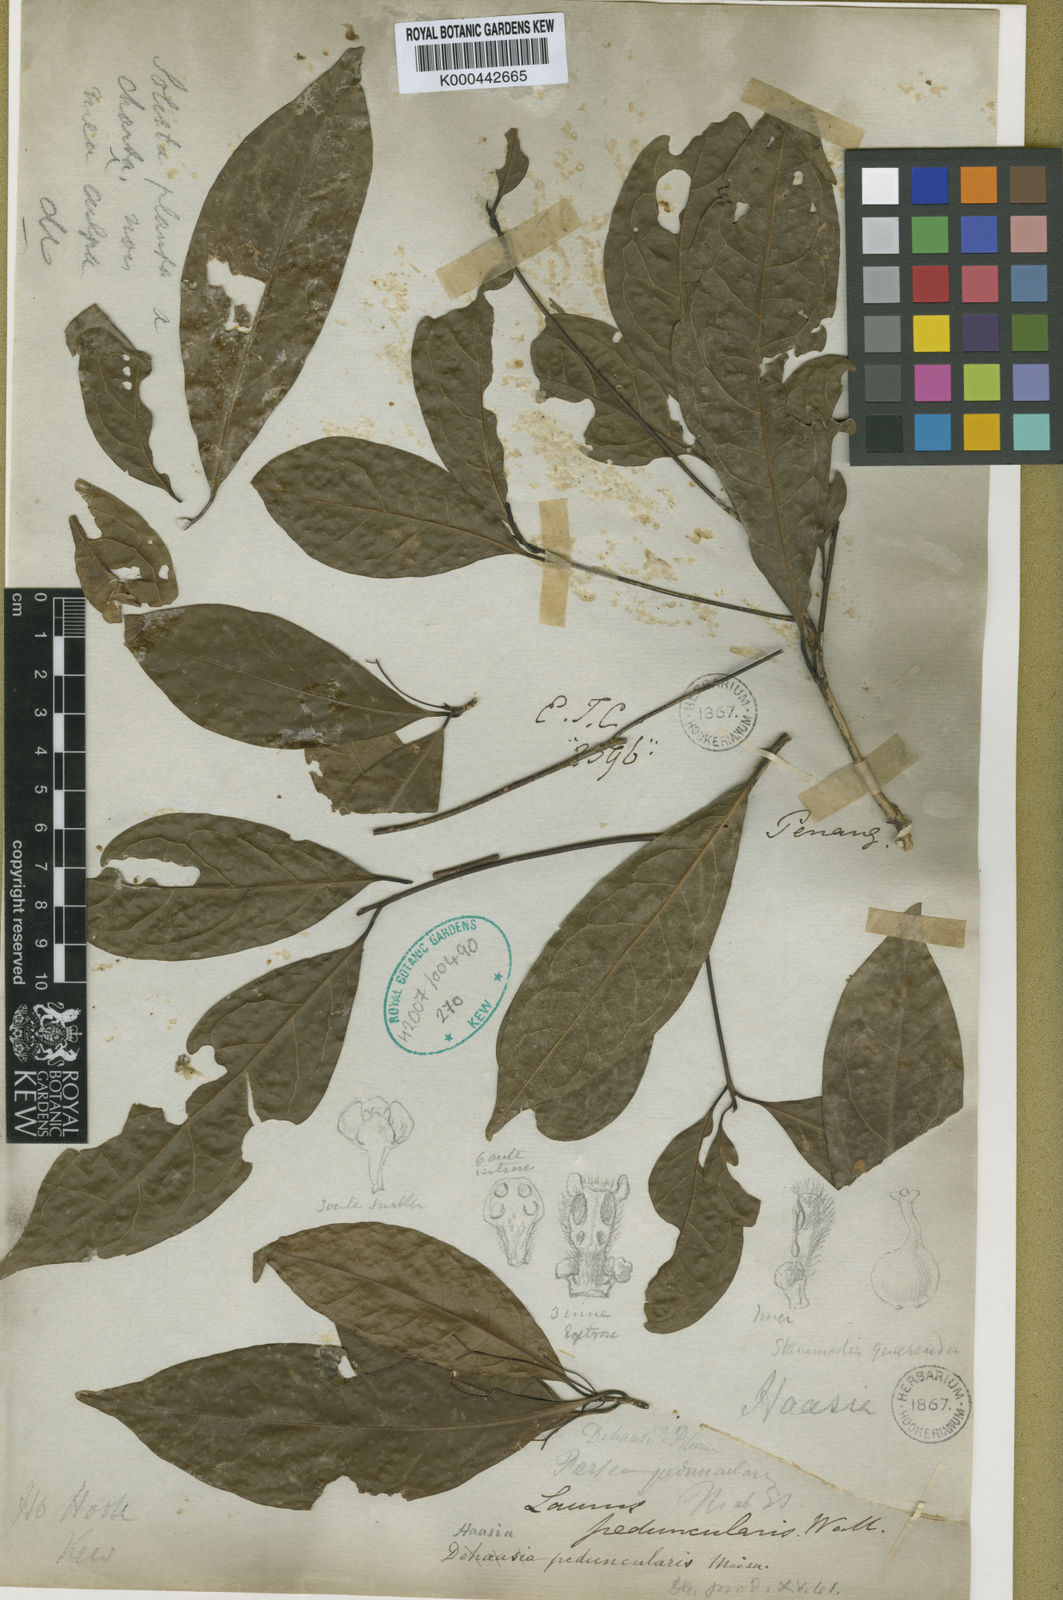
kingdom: Plantae
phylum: Tracheophyta
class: Magnoliopsida
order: Laurales
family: Lauraceae
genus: Alseodaphne
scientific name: Alseodaphne
